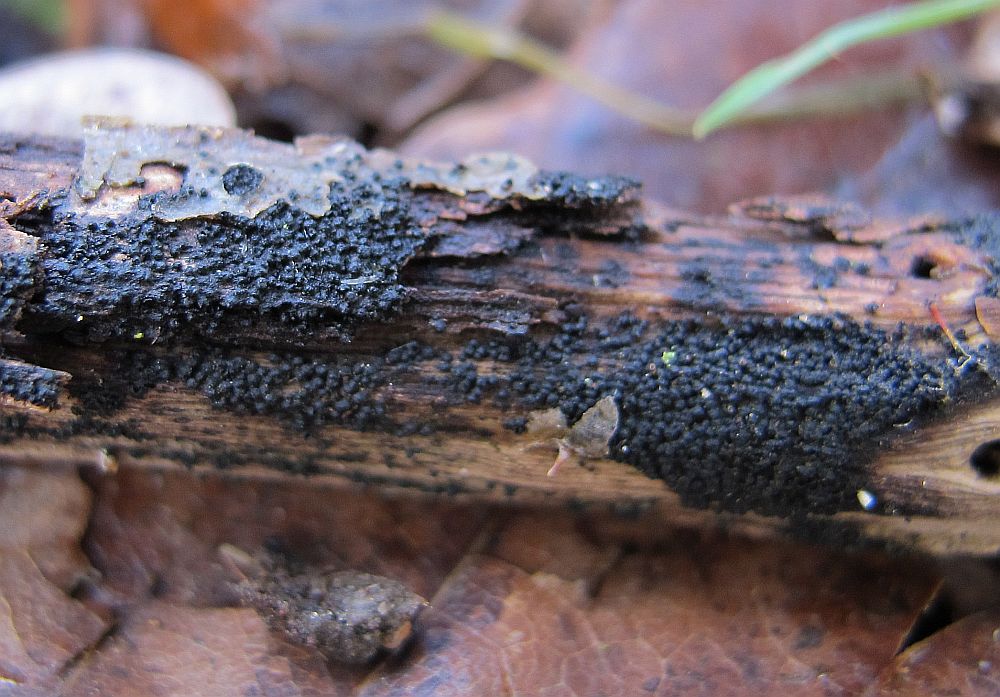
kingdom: Fungi
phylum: Ascomycota
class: Dothideomycetes
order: Pleosporales
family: Melanommataceae
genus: Melanomma
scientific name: Melanomma pulvis-pyrius
